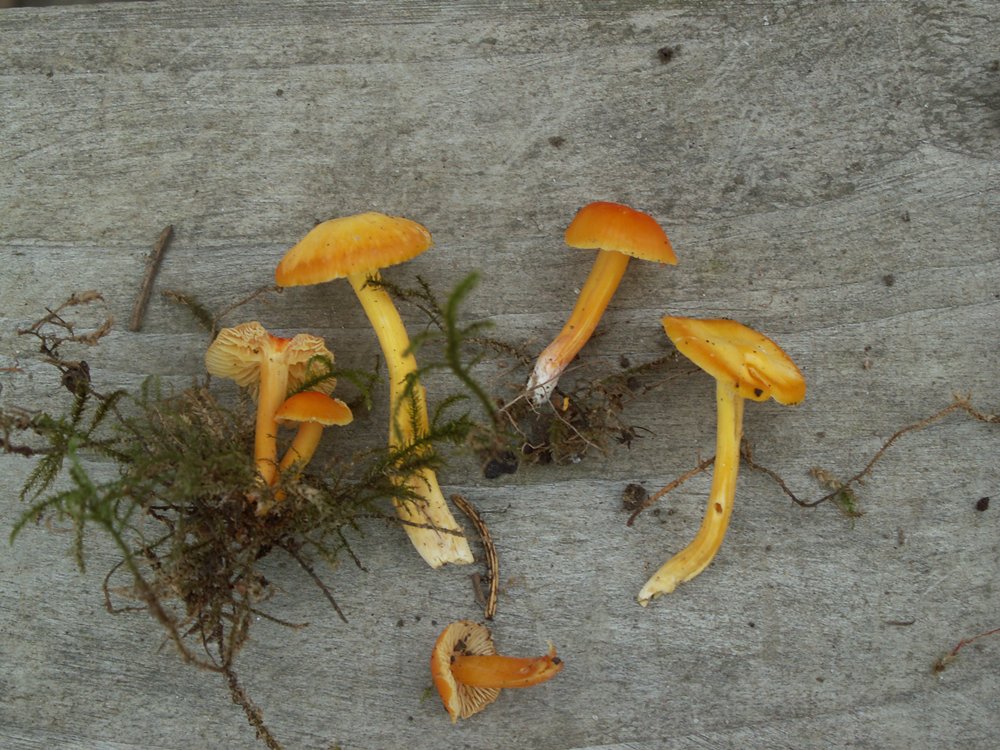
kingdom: Fungi
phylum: Basidiomycota
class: Agaricomycetes
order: Agaricales
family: Hygrophoraceae
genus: Hygrocybe
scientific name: Hygrocybe ceracea
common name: voksgul vokshat
